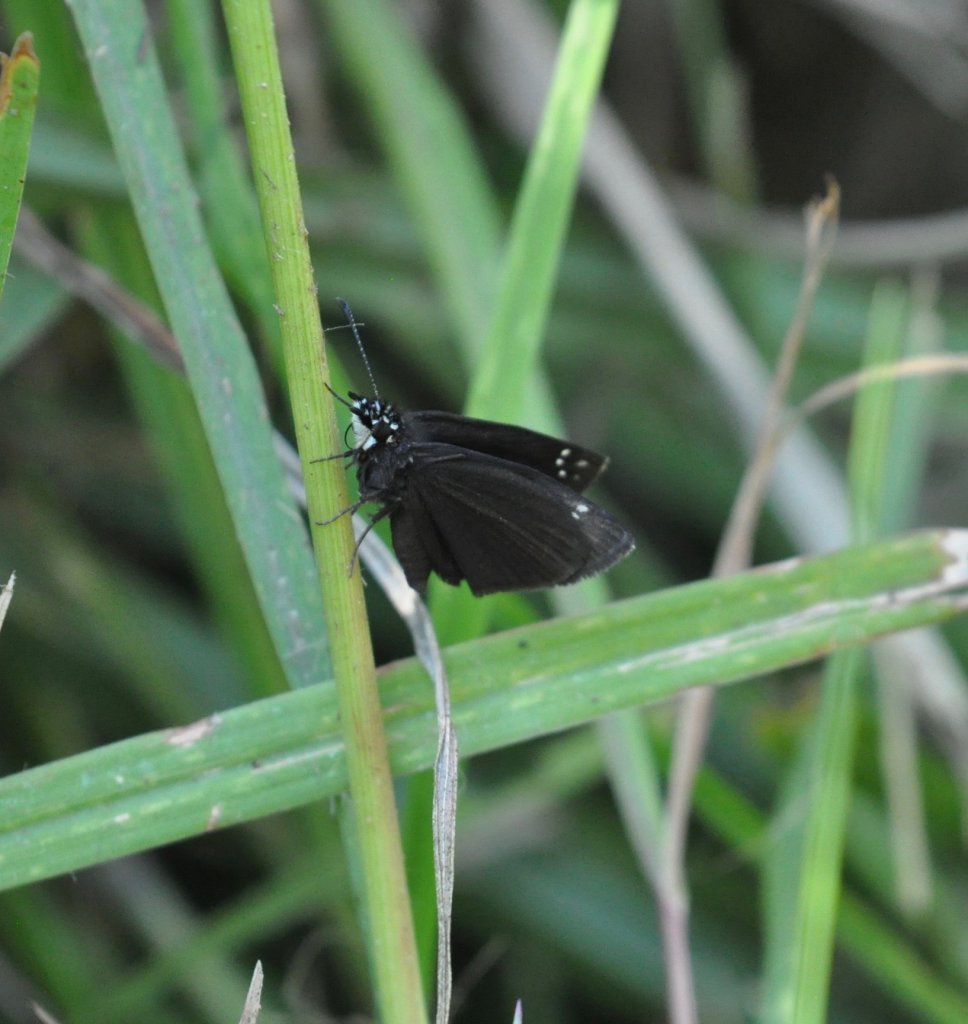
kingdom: Animalia
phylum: Arthropoda
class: Insecta
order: Lepidoptera
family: Hesperiidae
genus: Pholisora
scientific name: Pholisora catullus
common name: Common Sootywing
